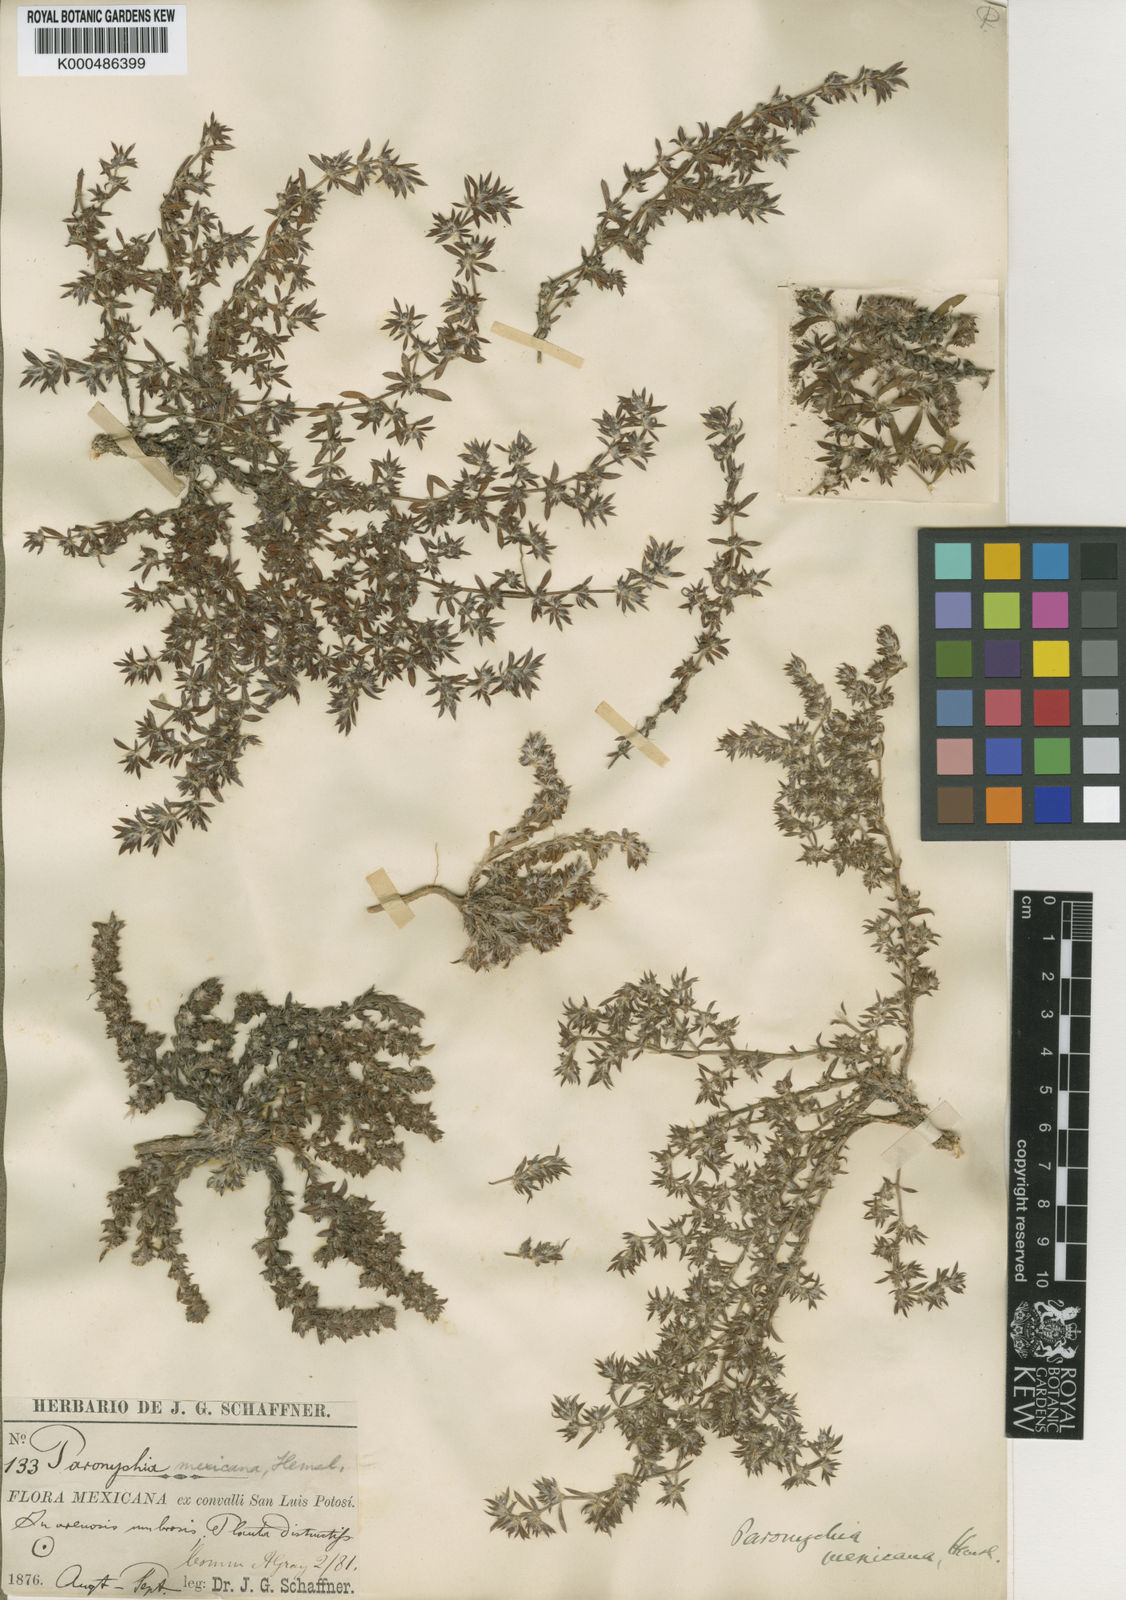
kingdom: Plantae
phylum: Tracheophyta
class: Magnoliopsida
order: Caryophyllales
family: Caryophyllaceae
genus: Paronychia
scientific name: Paronychia mexicana
